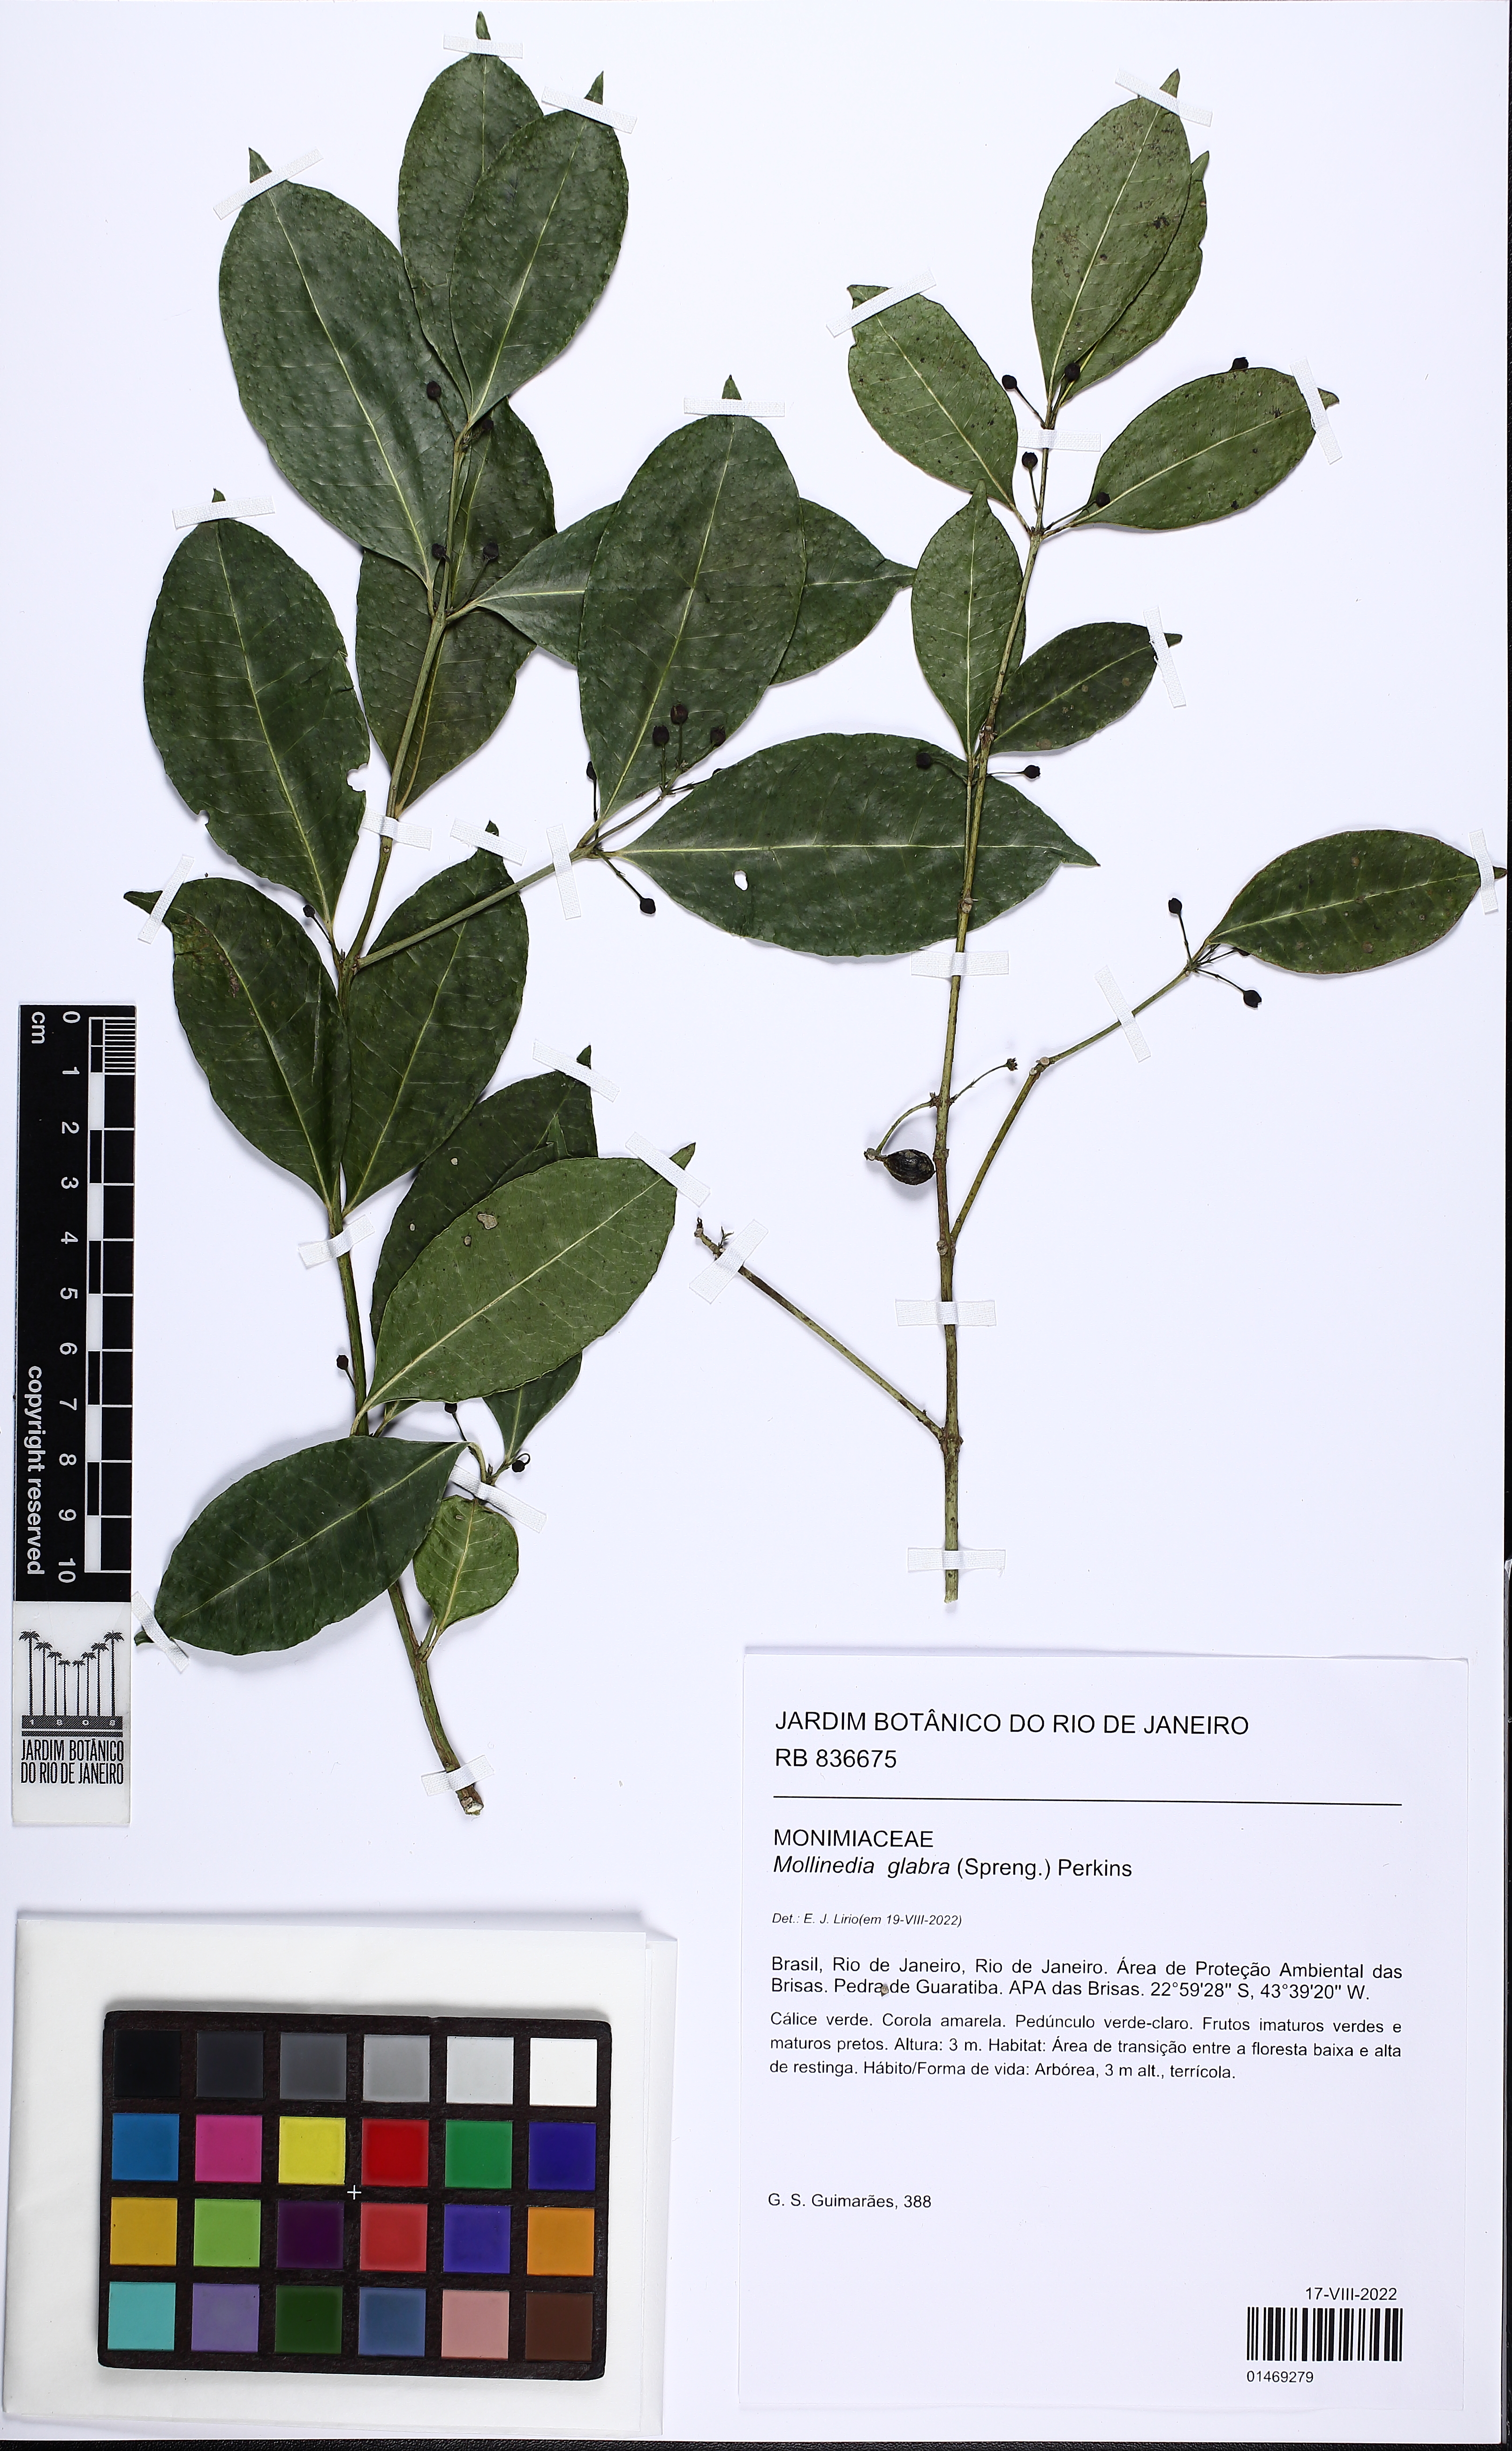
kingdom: Plantae
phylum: Tracheophyta
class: Magnoliopsida
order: Laurales
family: Monimiaceae
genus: Mollinedia
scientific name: Mollinedia glabra
